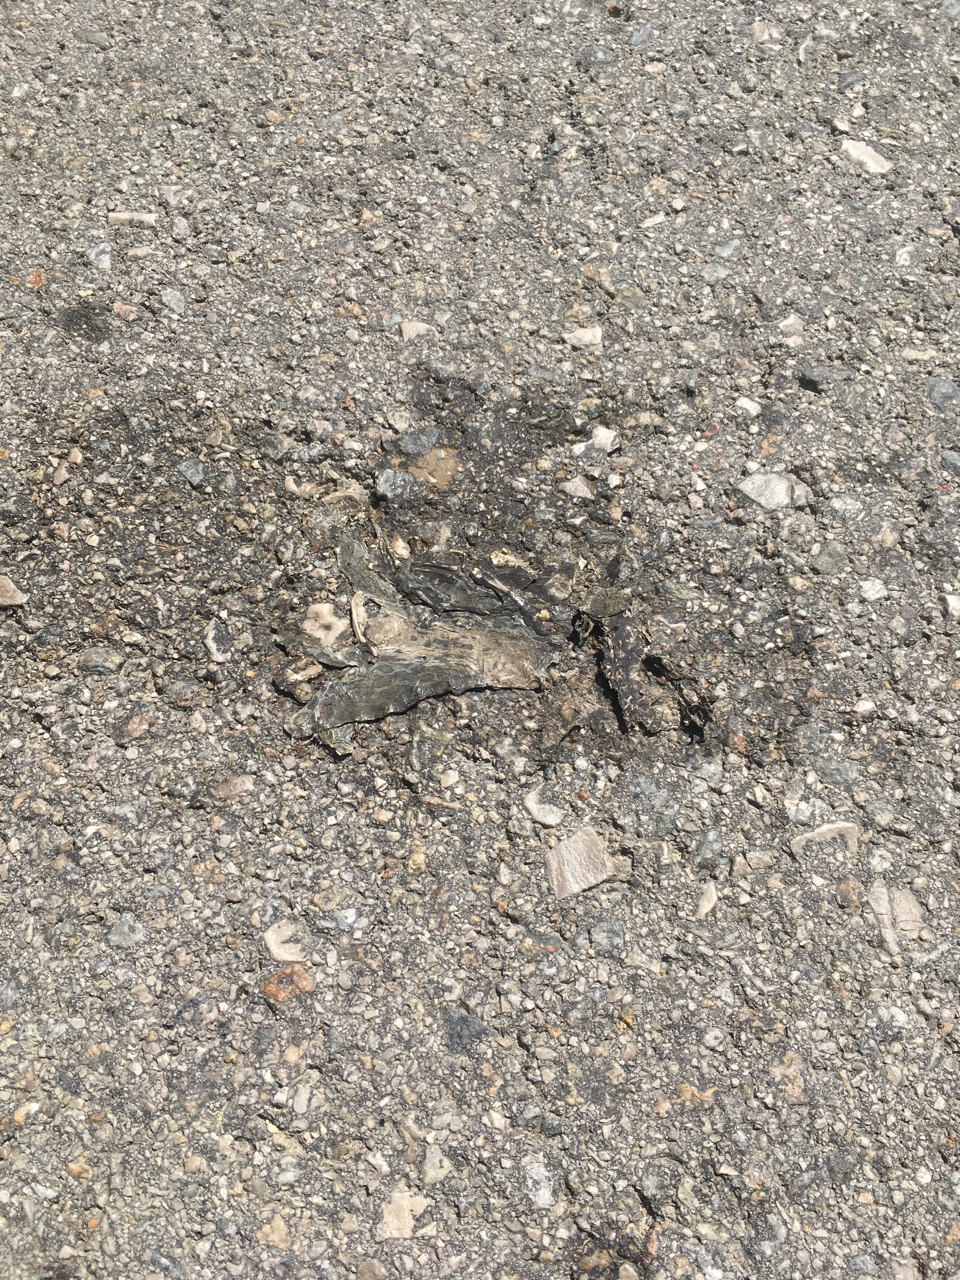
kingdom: Animalia
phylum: Chordata
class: Amphibia
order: Anura
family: Bufonidae
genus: Bufotes
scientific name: Bufotes viridis
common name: European green toad
